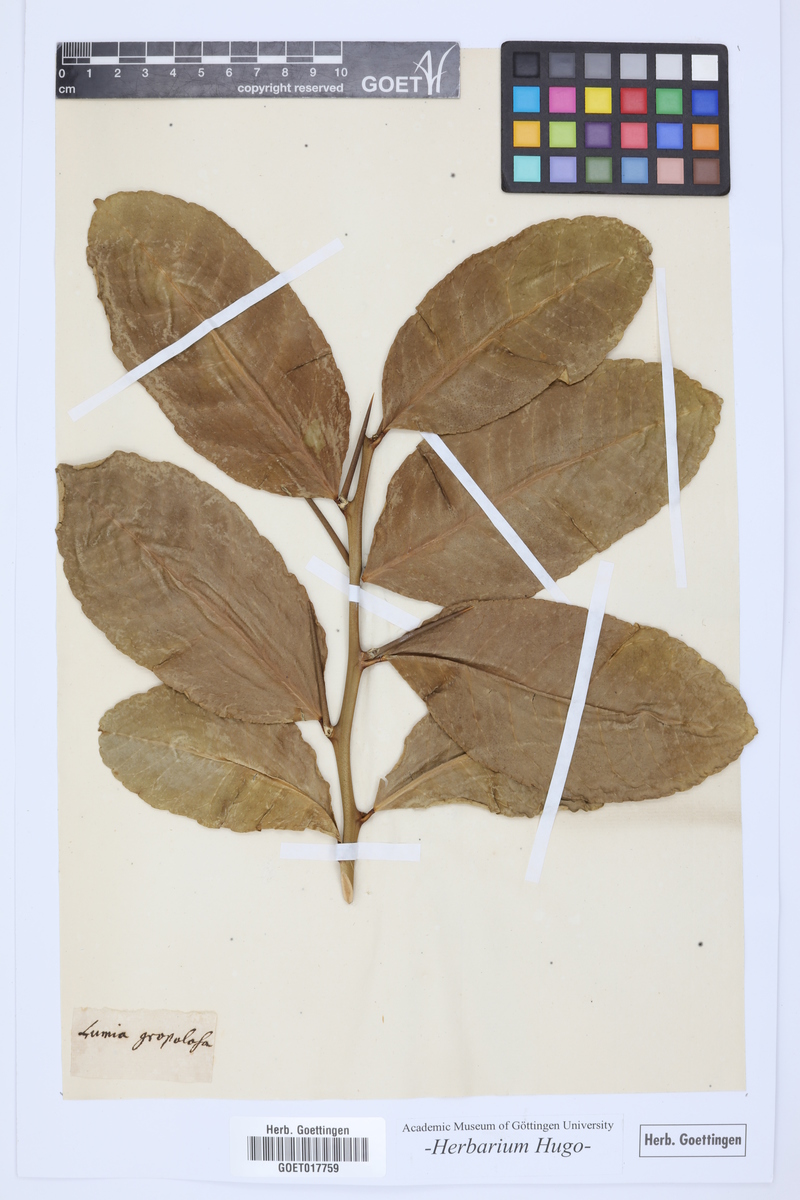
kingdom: Plantae
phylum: Tracheophyta
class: Magnoliopsida
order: Sapindales
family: Rutaceae
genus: Citrus
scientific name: Citrus
